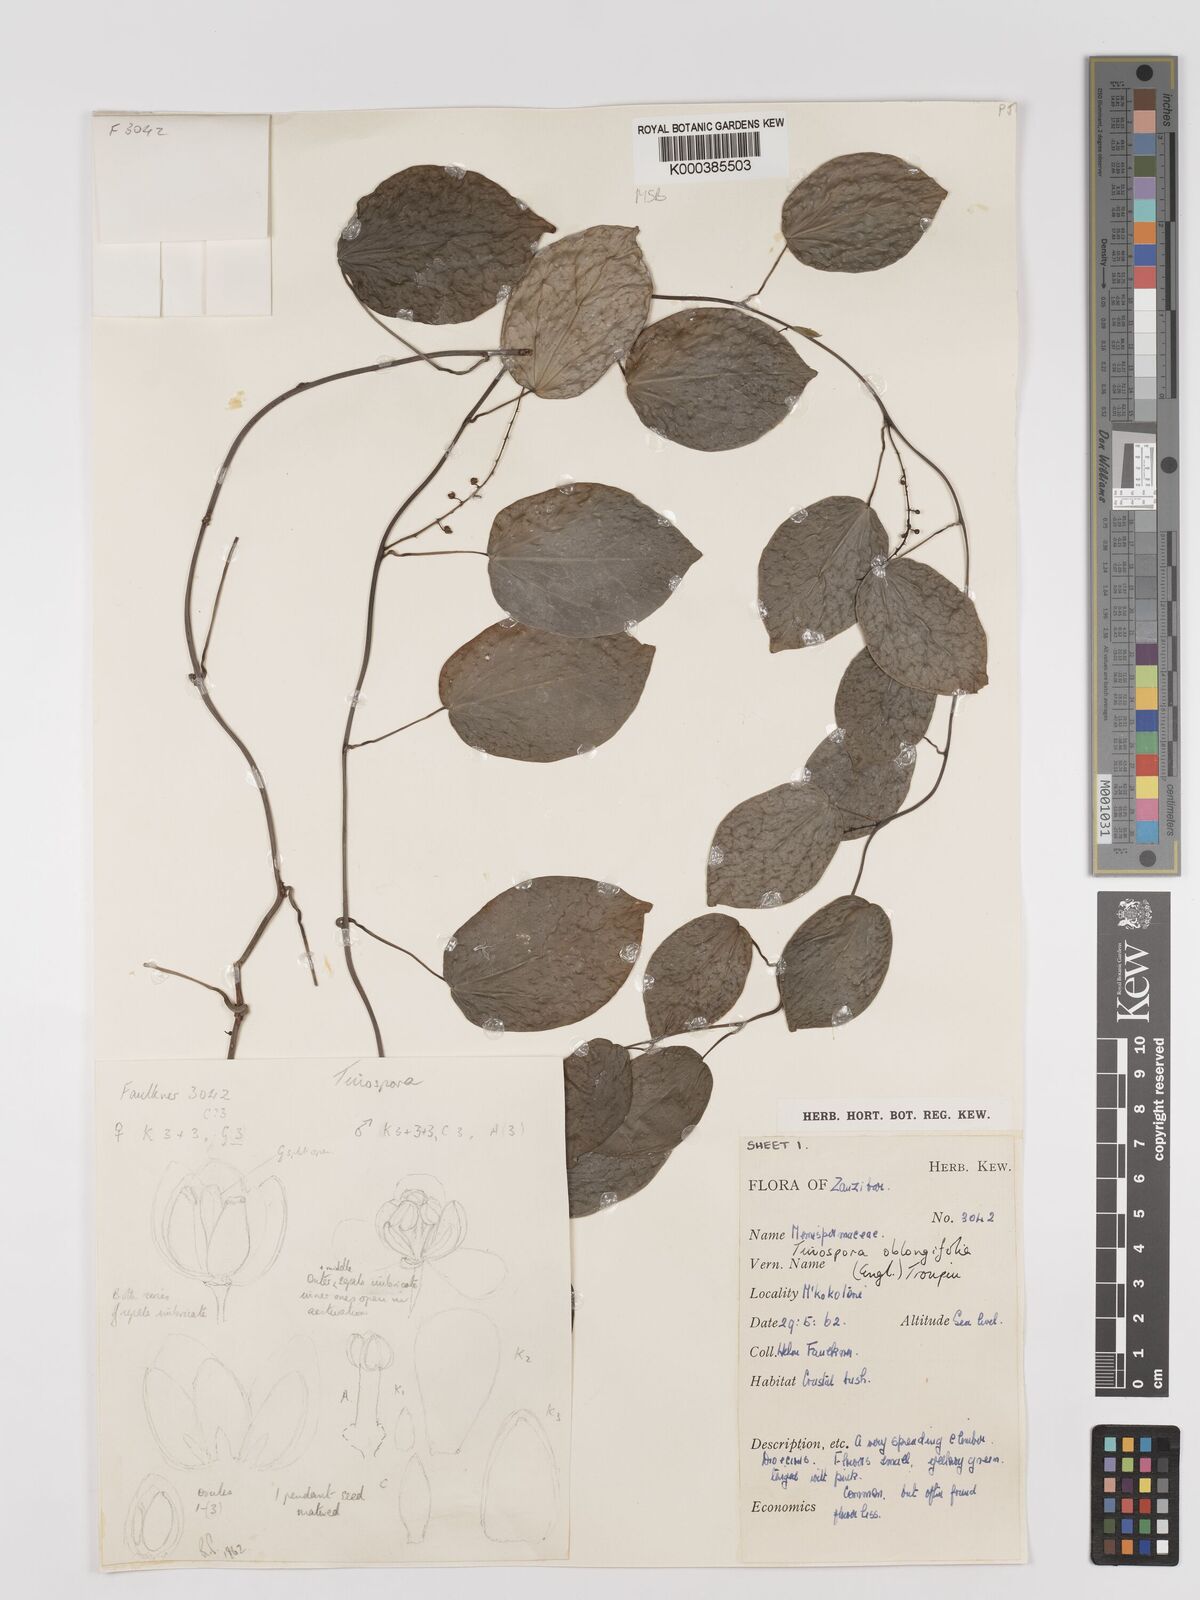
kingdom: Plantae
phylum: Tracheophyta
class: Magnoliopsida
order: Ranunculales
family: Menispermaceae
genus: Tinospora
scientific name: Tinospora oblongifolia
